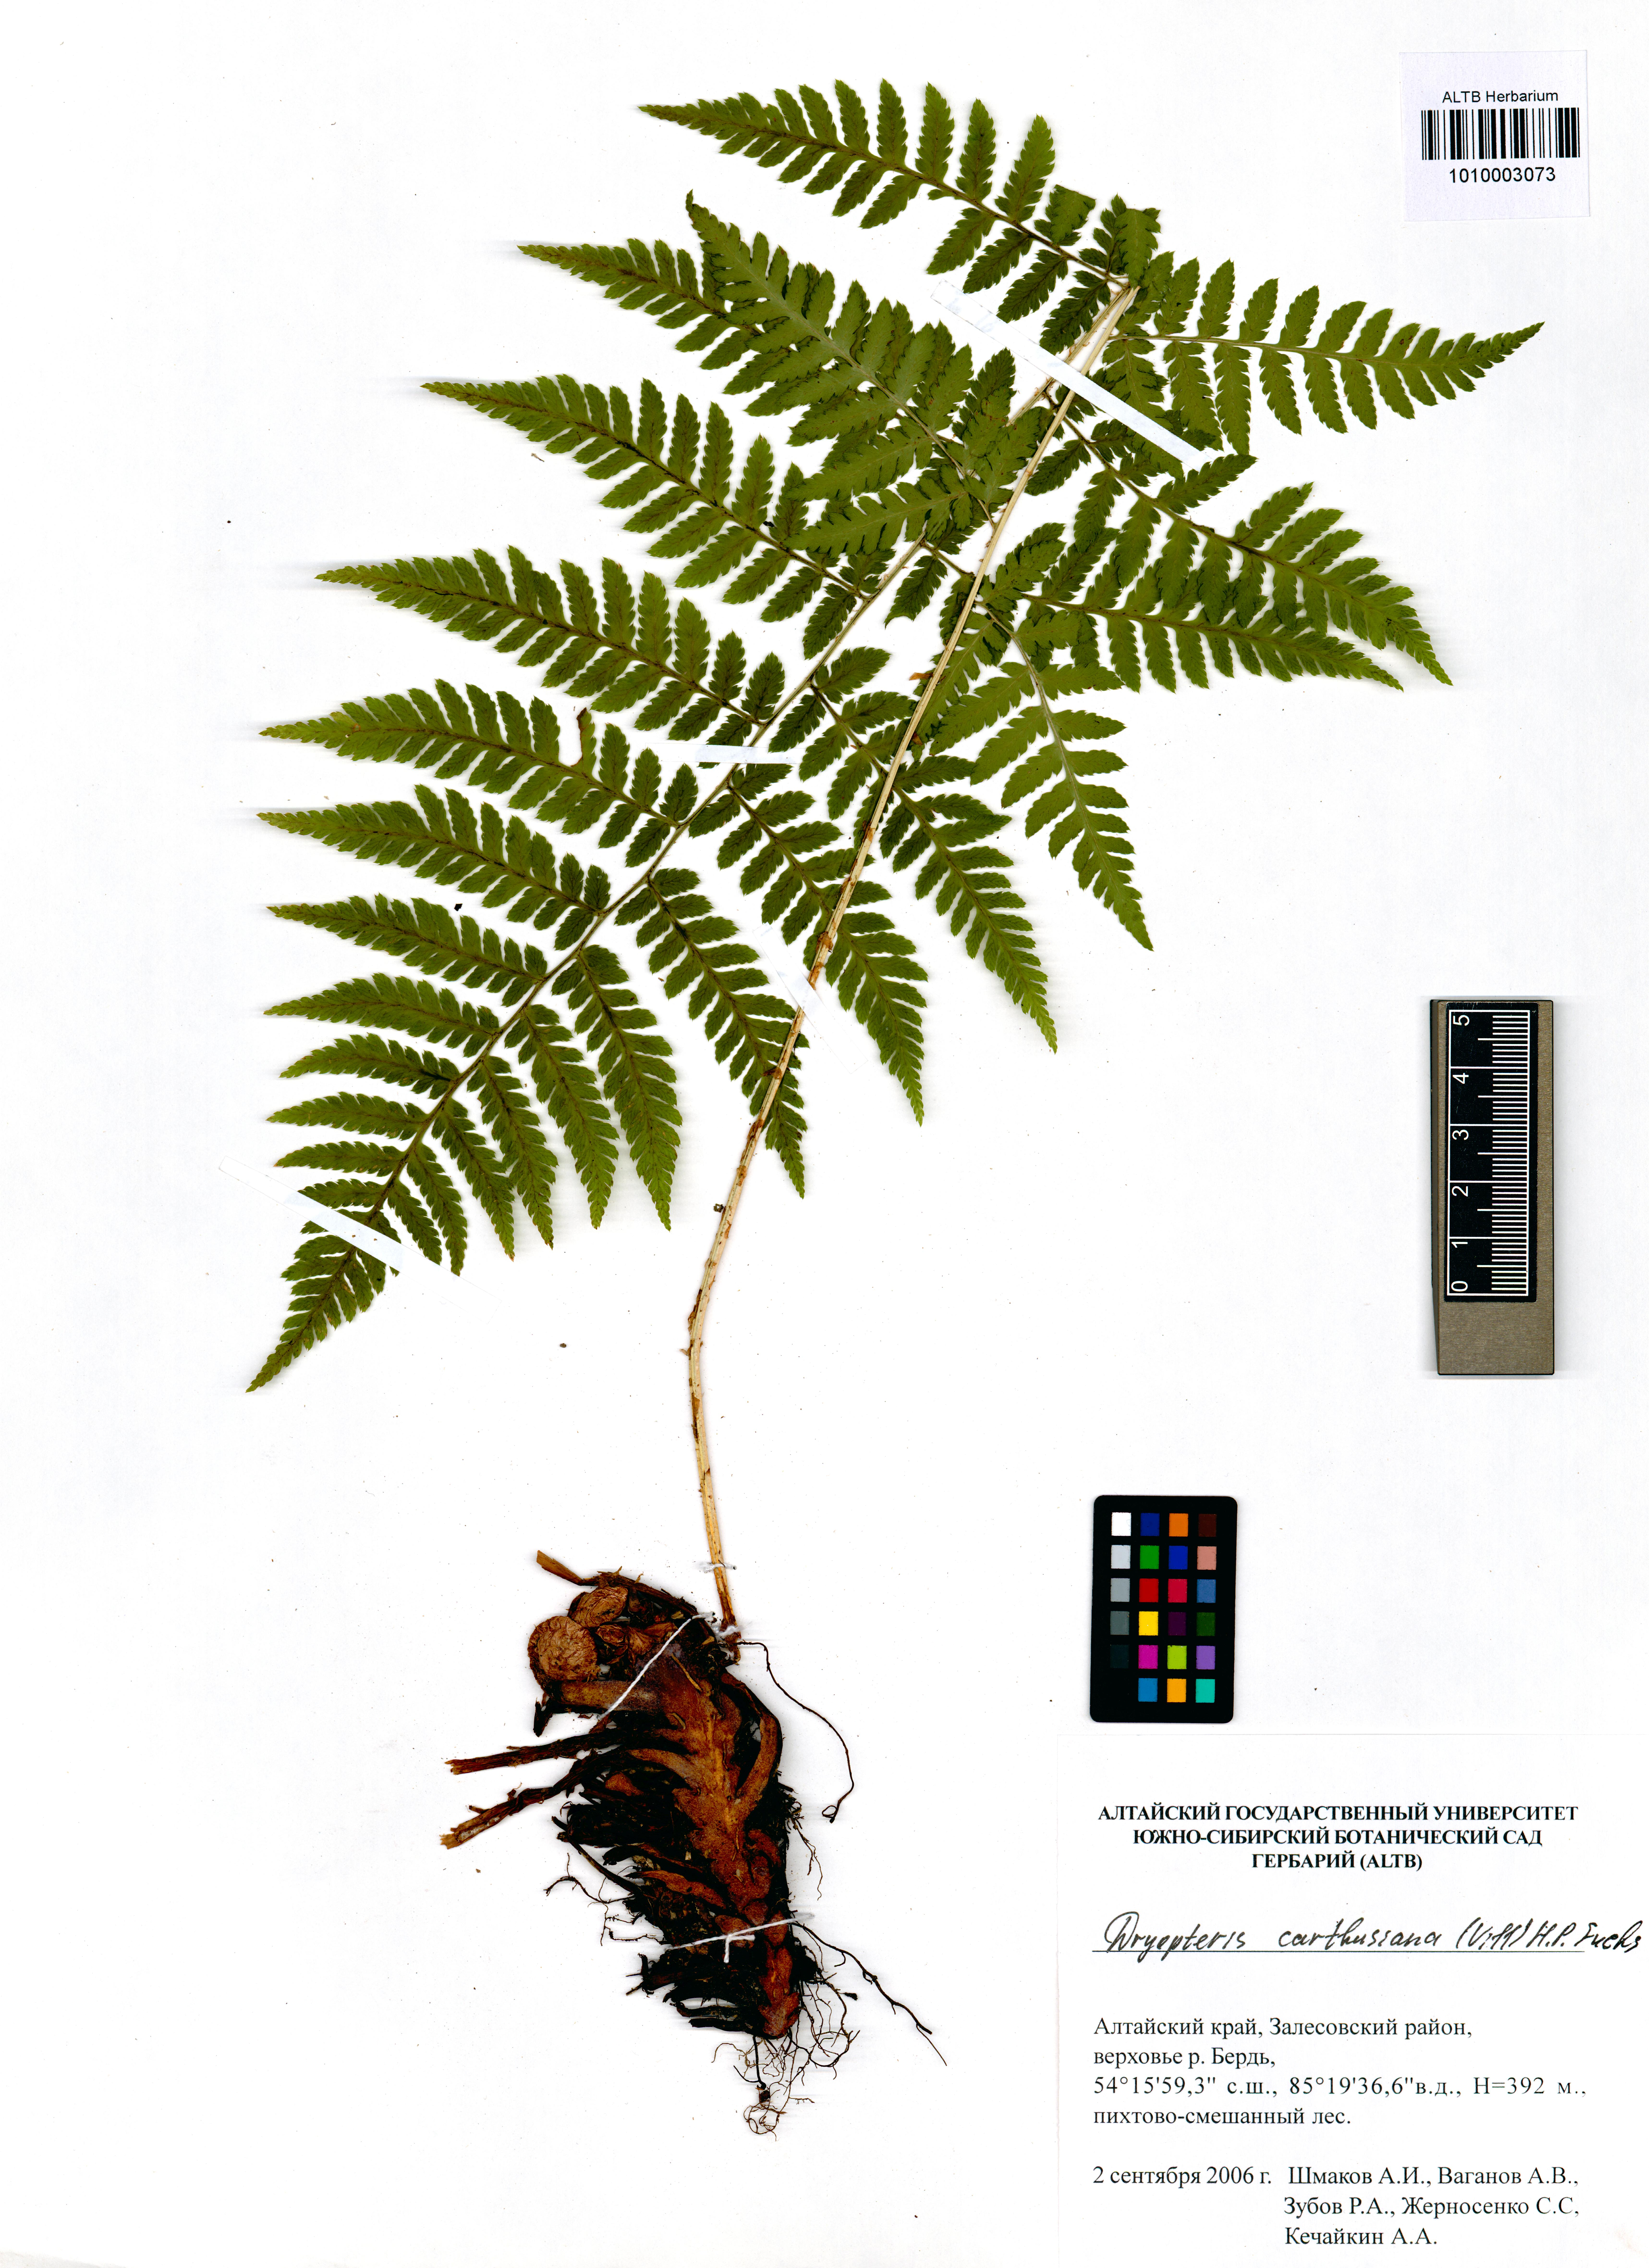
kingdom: Plantae
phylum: Tracheophyta
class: Polypodiopsida
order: Polypodiales
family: Dryopteridaceae
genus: Dryopteris
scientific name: Dryopteris carthusiana
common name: Narrow buckler-fern
